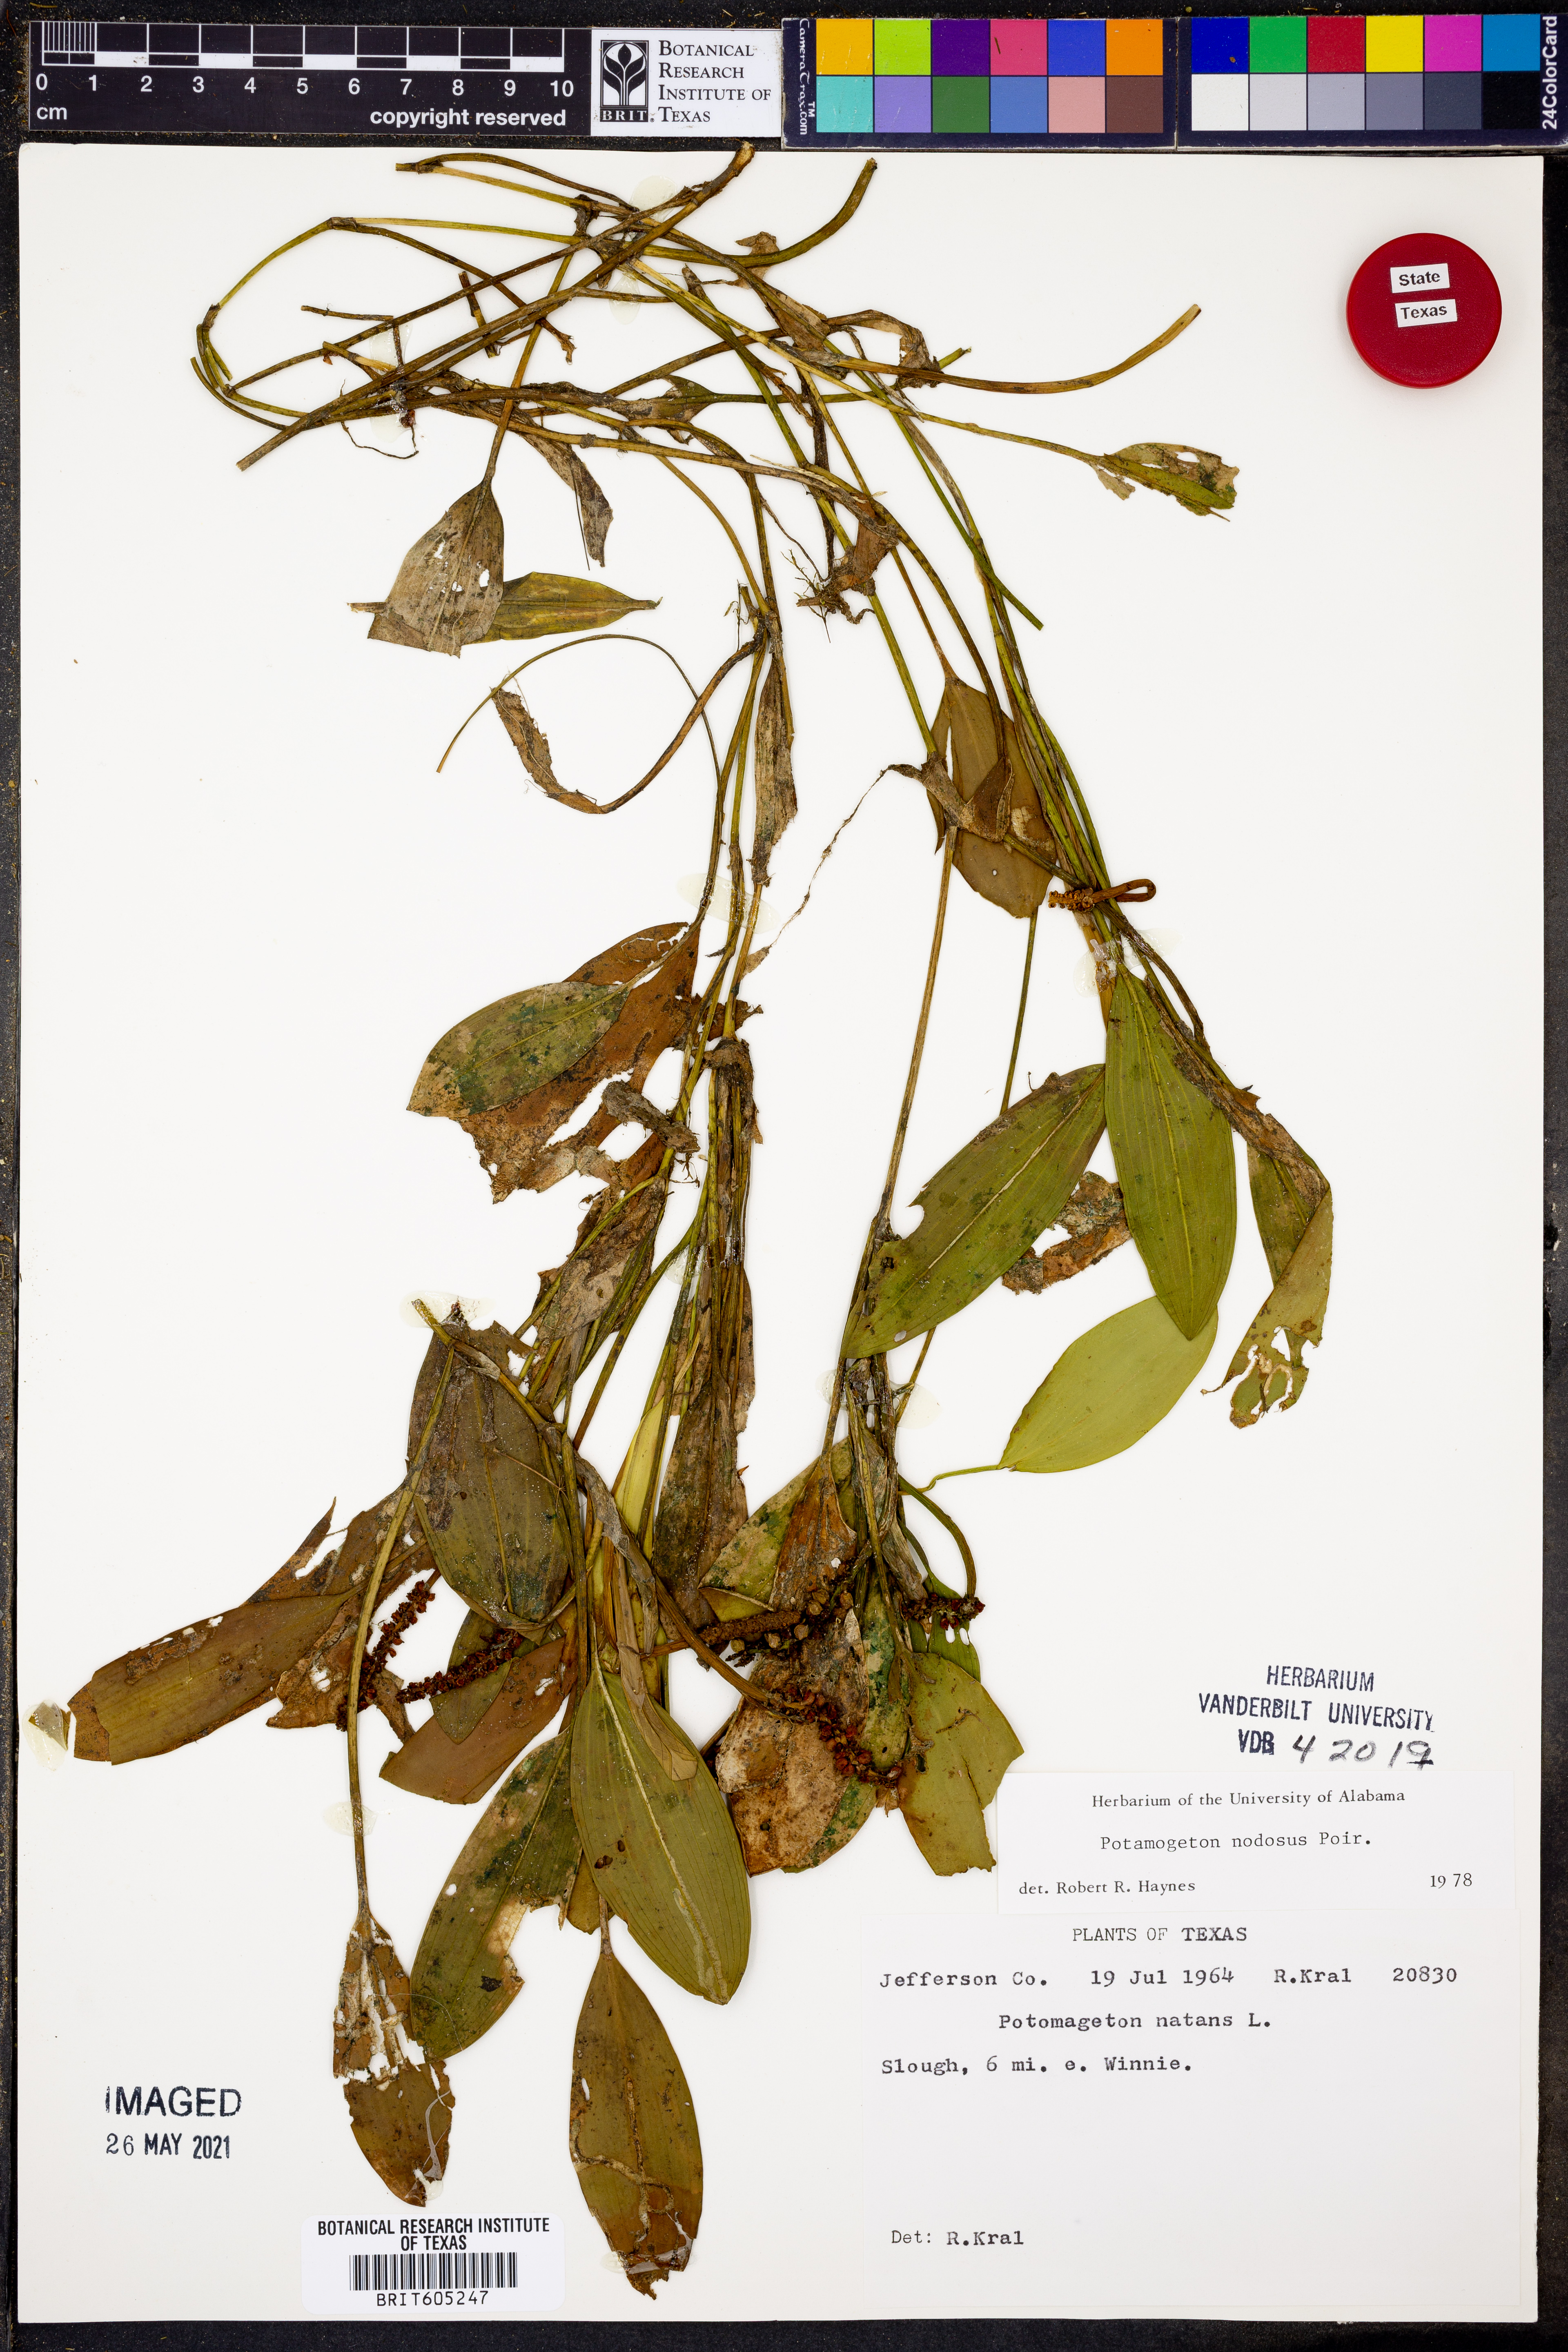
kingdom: Plantae
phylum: Tracheophyta
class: Liliopsida
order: Alismatales
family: Potamogetonaceae
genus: Potamogeton
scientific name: Potamogeton nodosus
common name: Loddon pondweed
